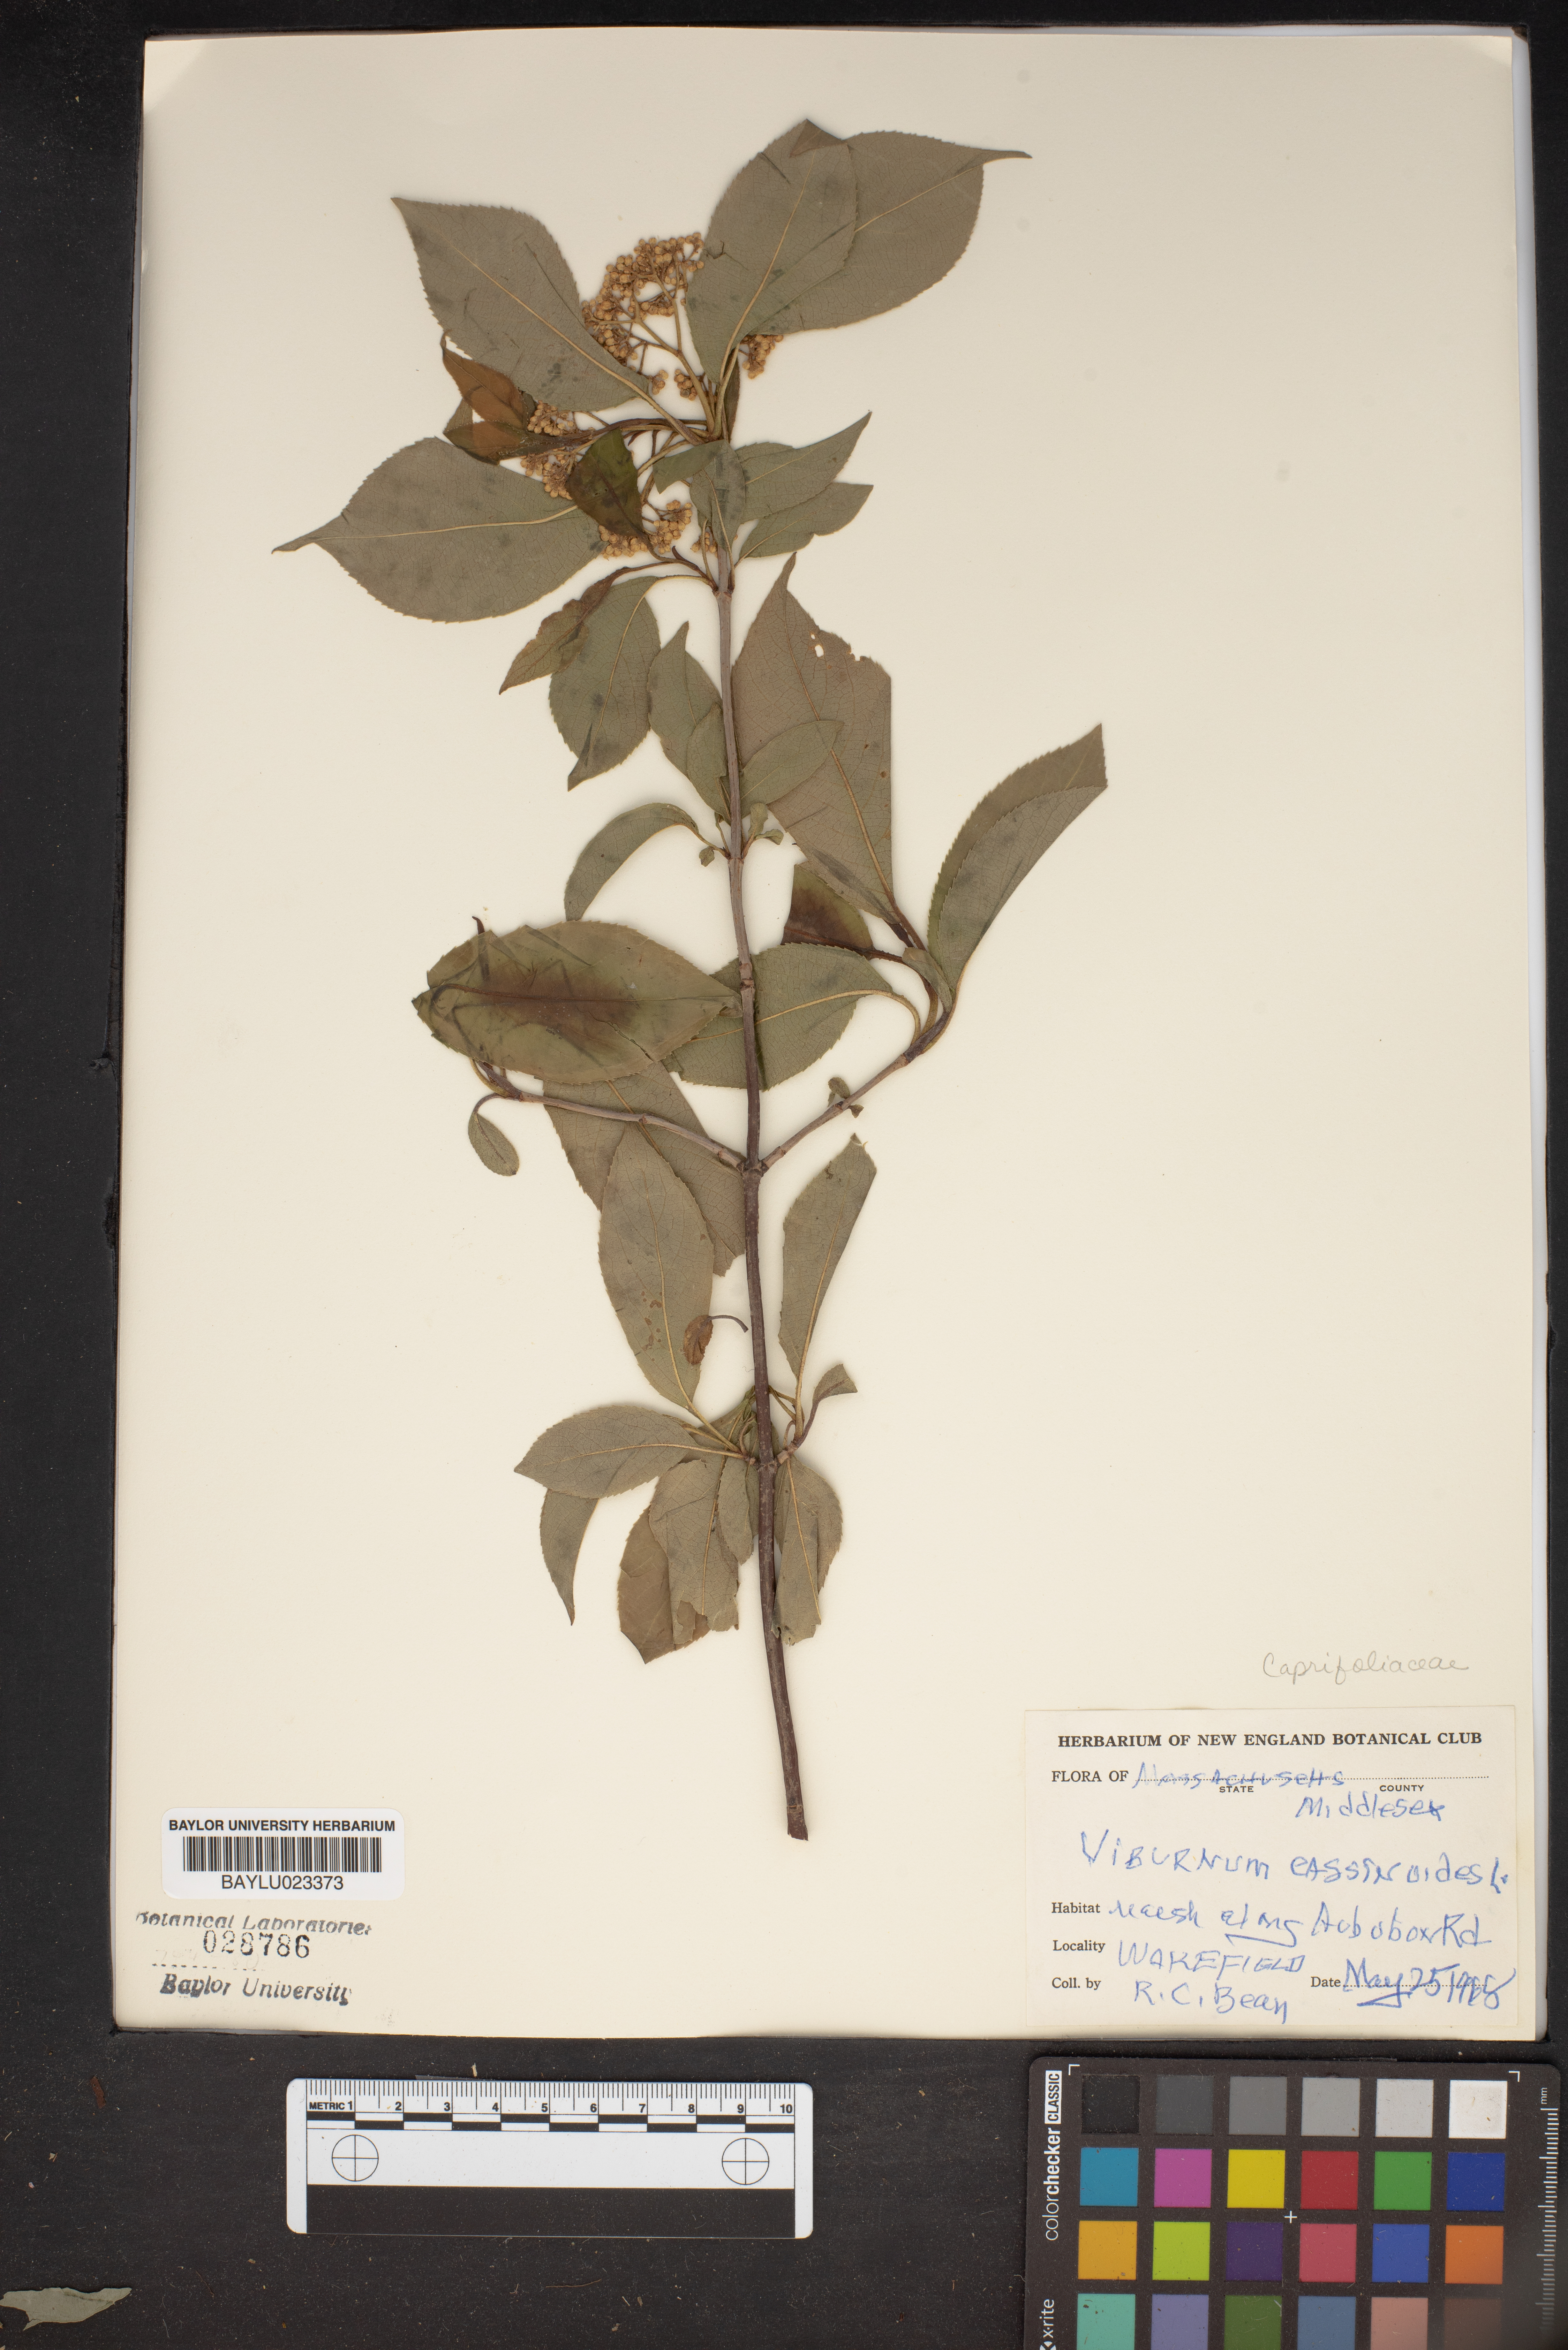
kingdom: Plantae
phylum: Tracheophyta
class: Magnoliopsida
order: Dipsacales
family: Viburnaceae
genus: Viburnum
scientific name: Viburnum cassinoides
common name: Swamp haw
